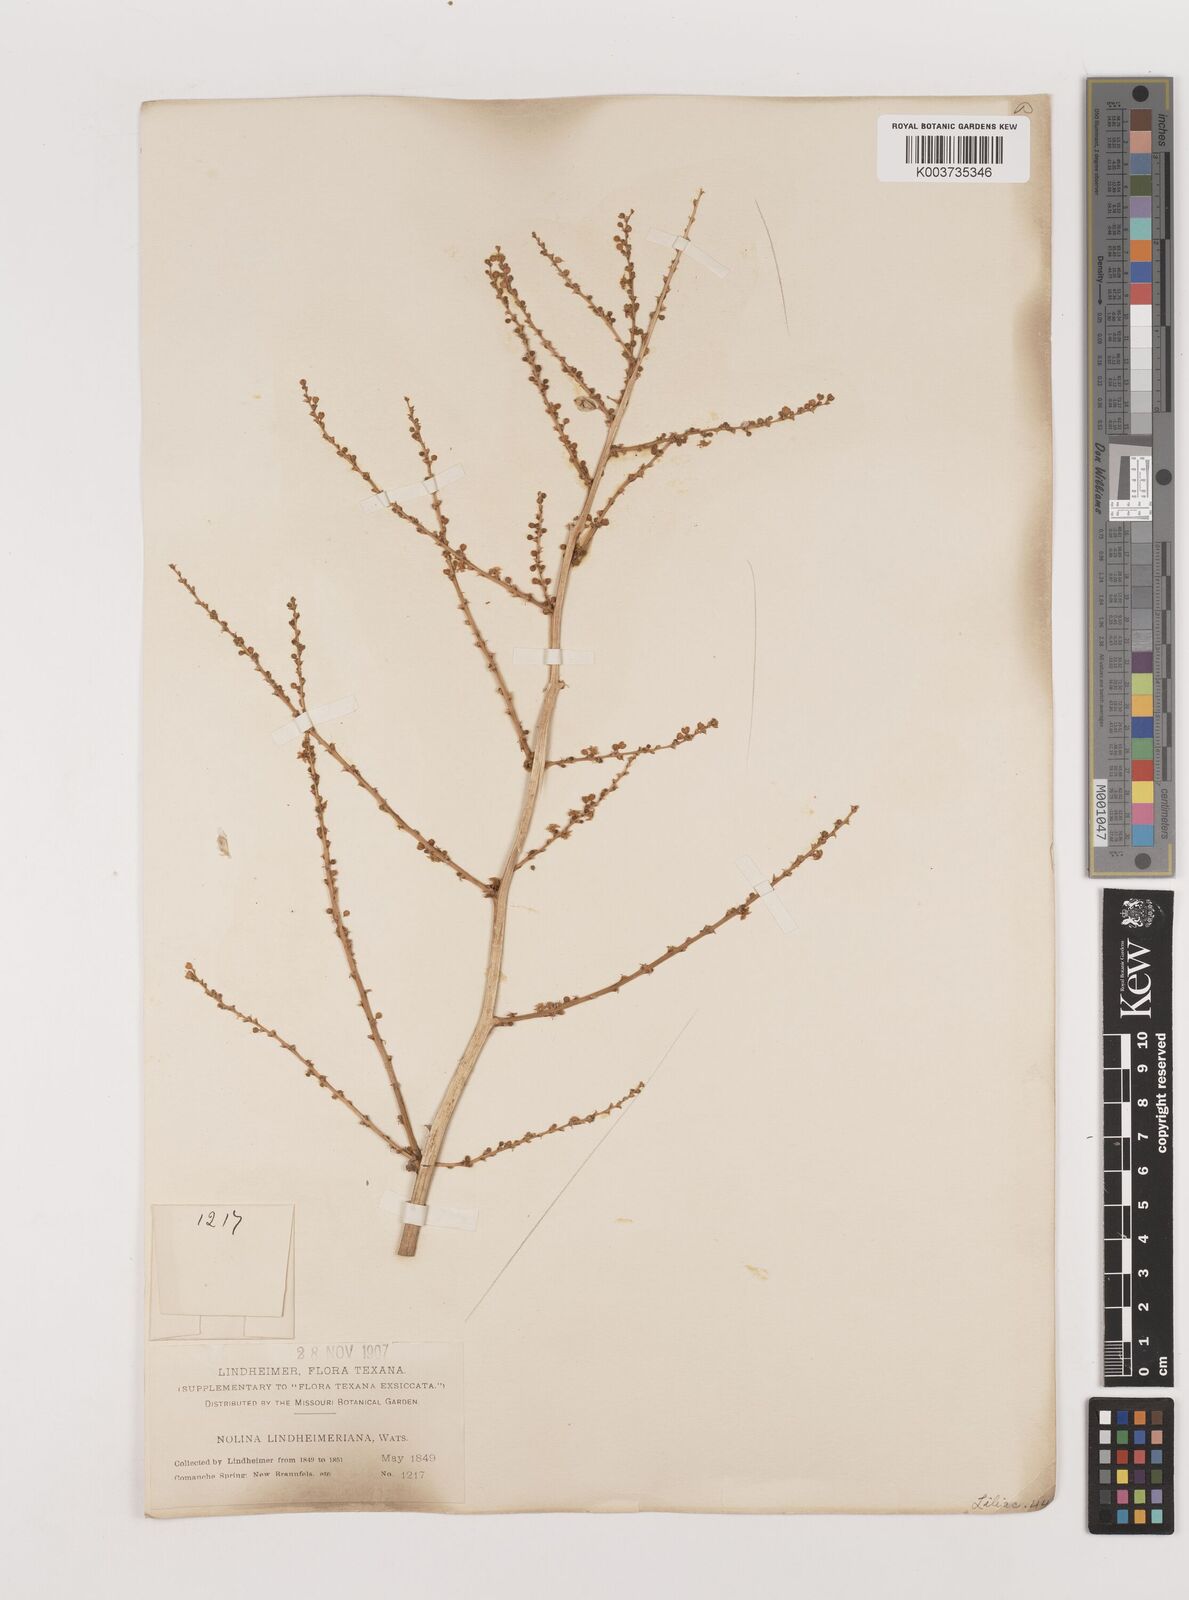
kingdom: Plantae
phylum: Tracheophyta
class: Liliopsida
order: Asparagales
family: Asparagaceae
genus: Nolina
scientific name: Nolina lindheimeriana
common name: Lindheimer's bear-grass
